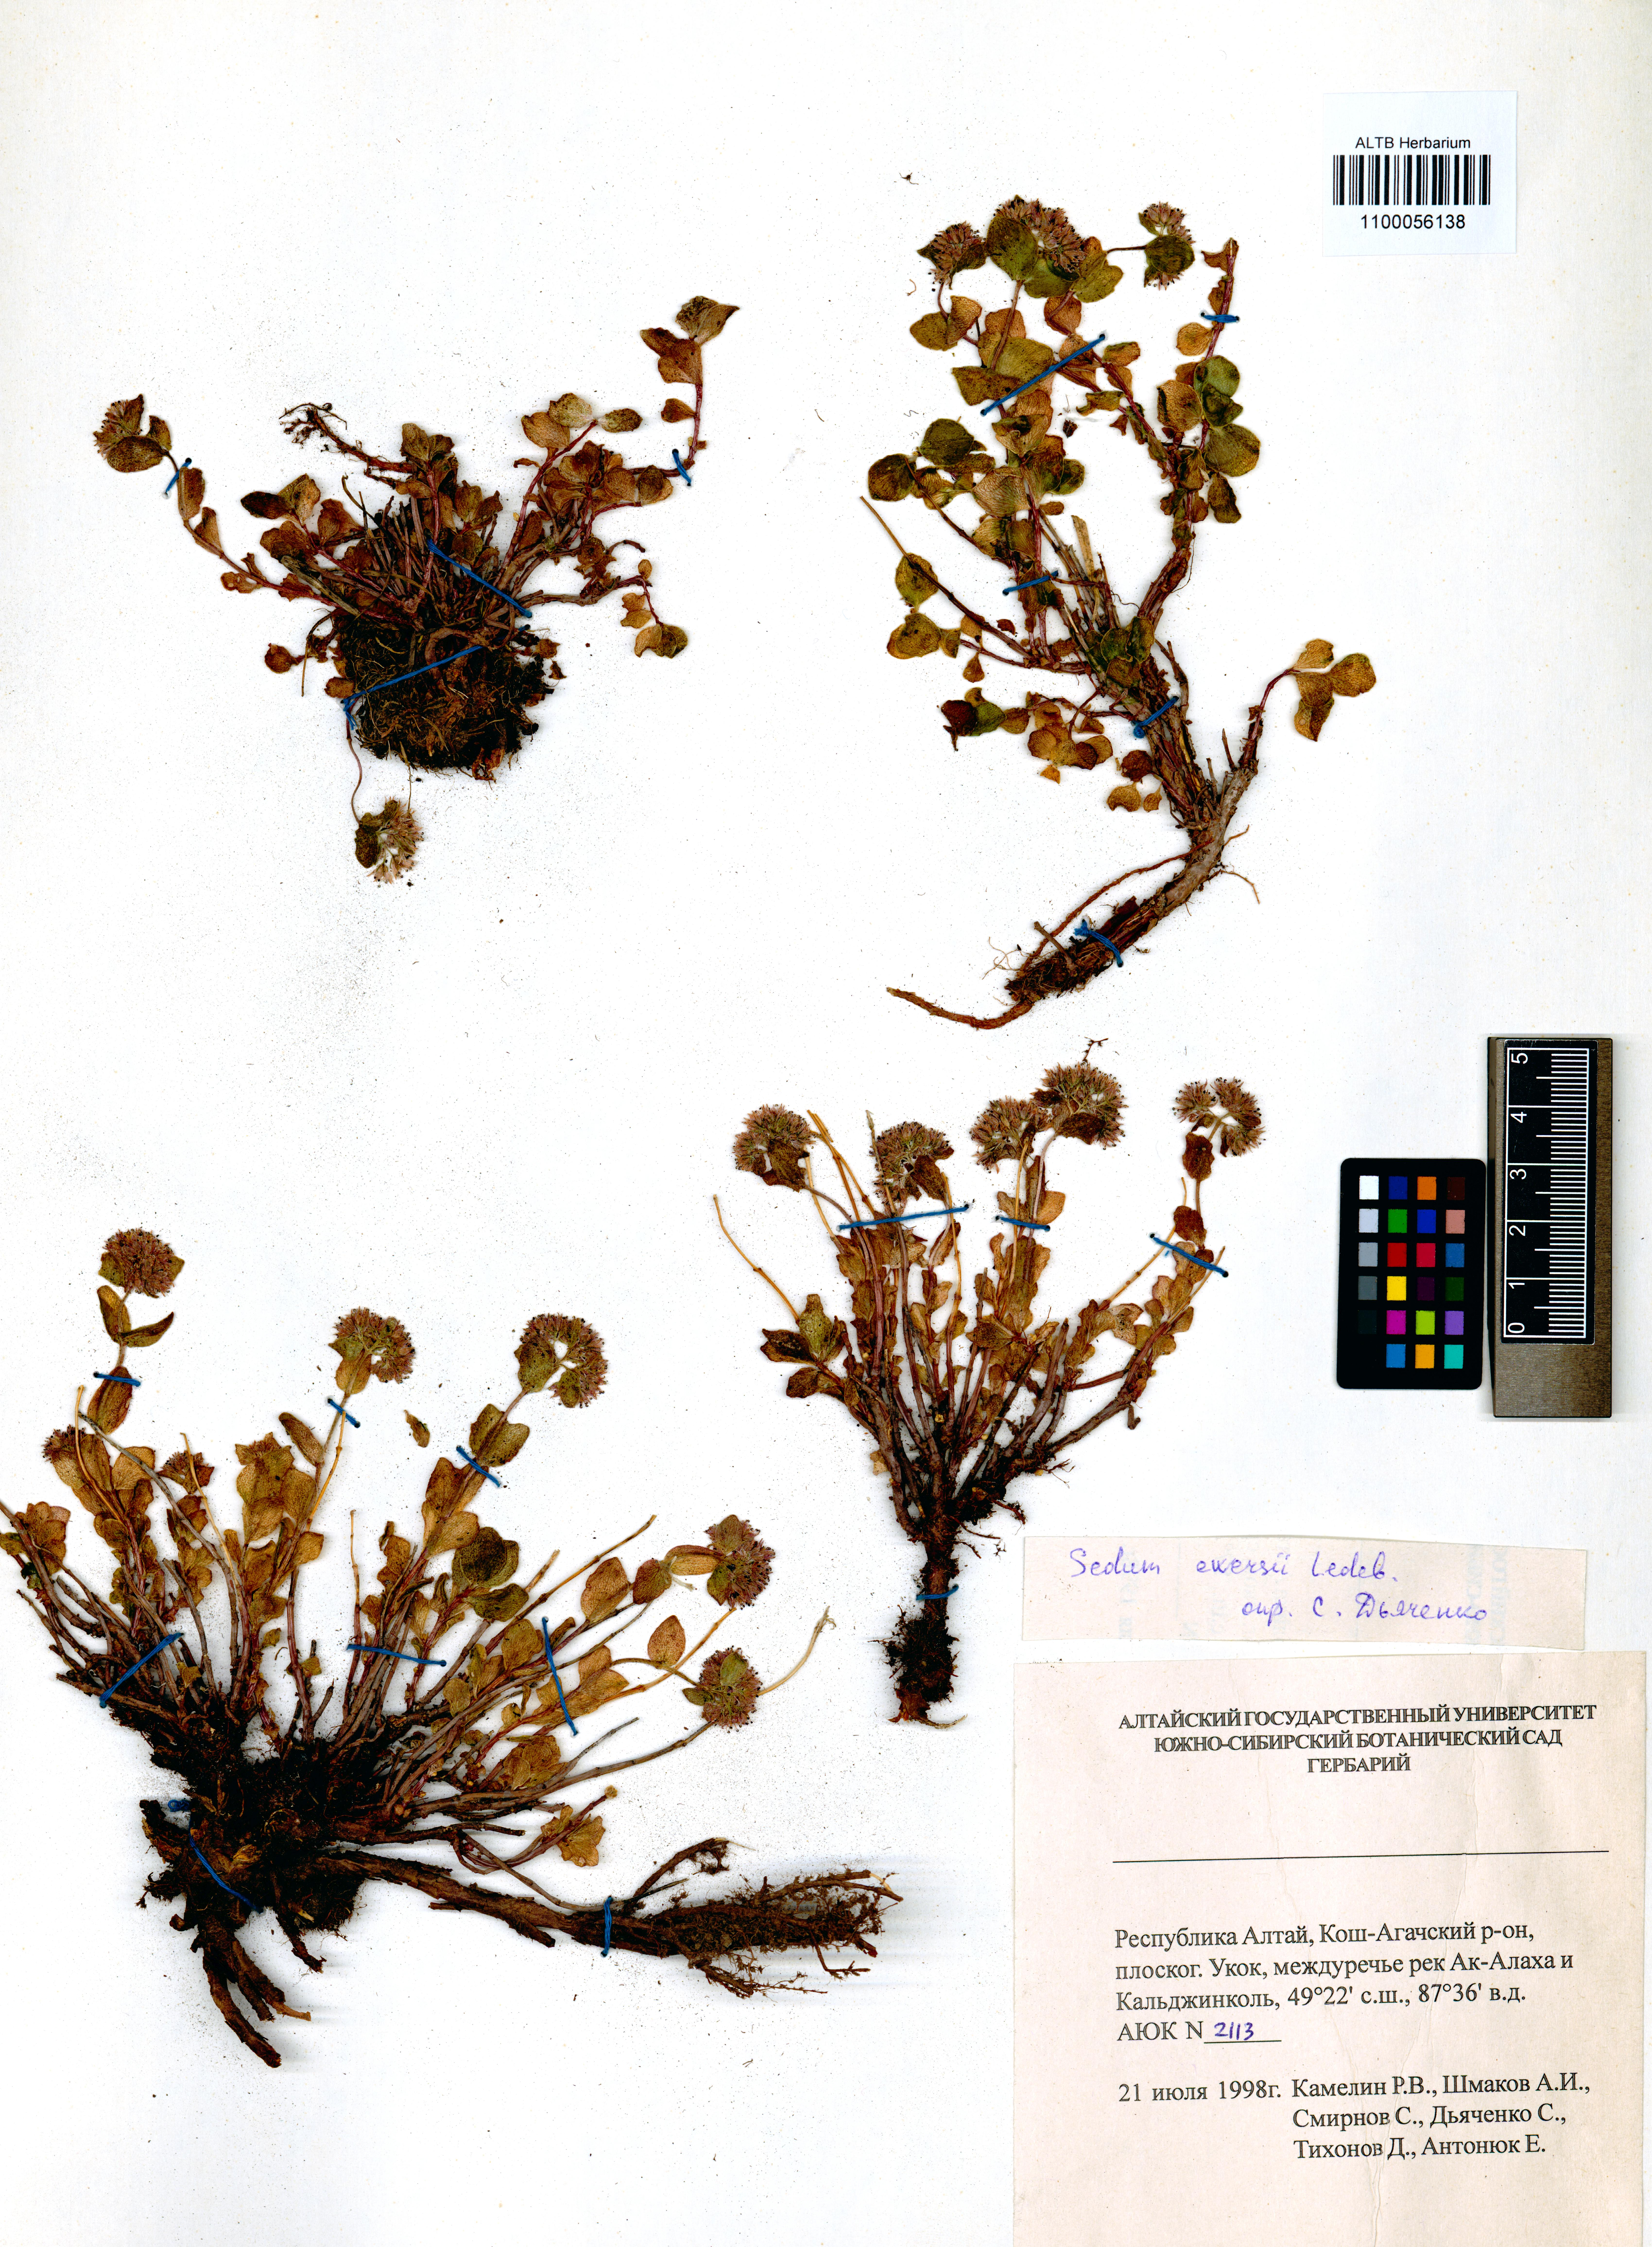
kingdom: Plantae
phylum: Tracheophyta
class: Magnoliopsida
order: Saxifragales
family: Crassulaceae
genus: Hylotelephium
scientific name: Hylotelephium ewersii
